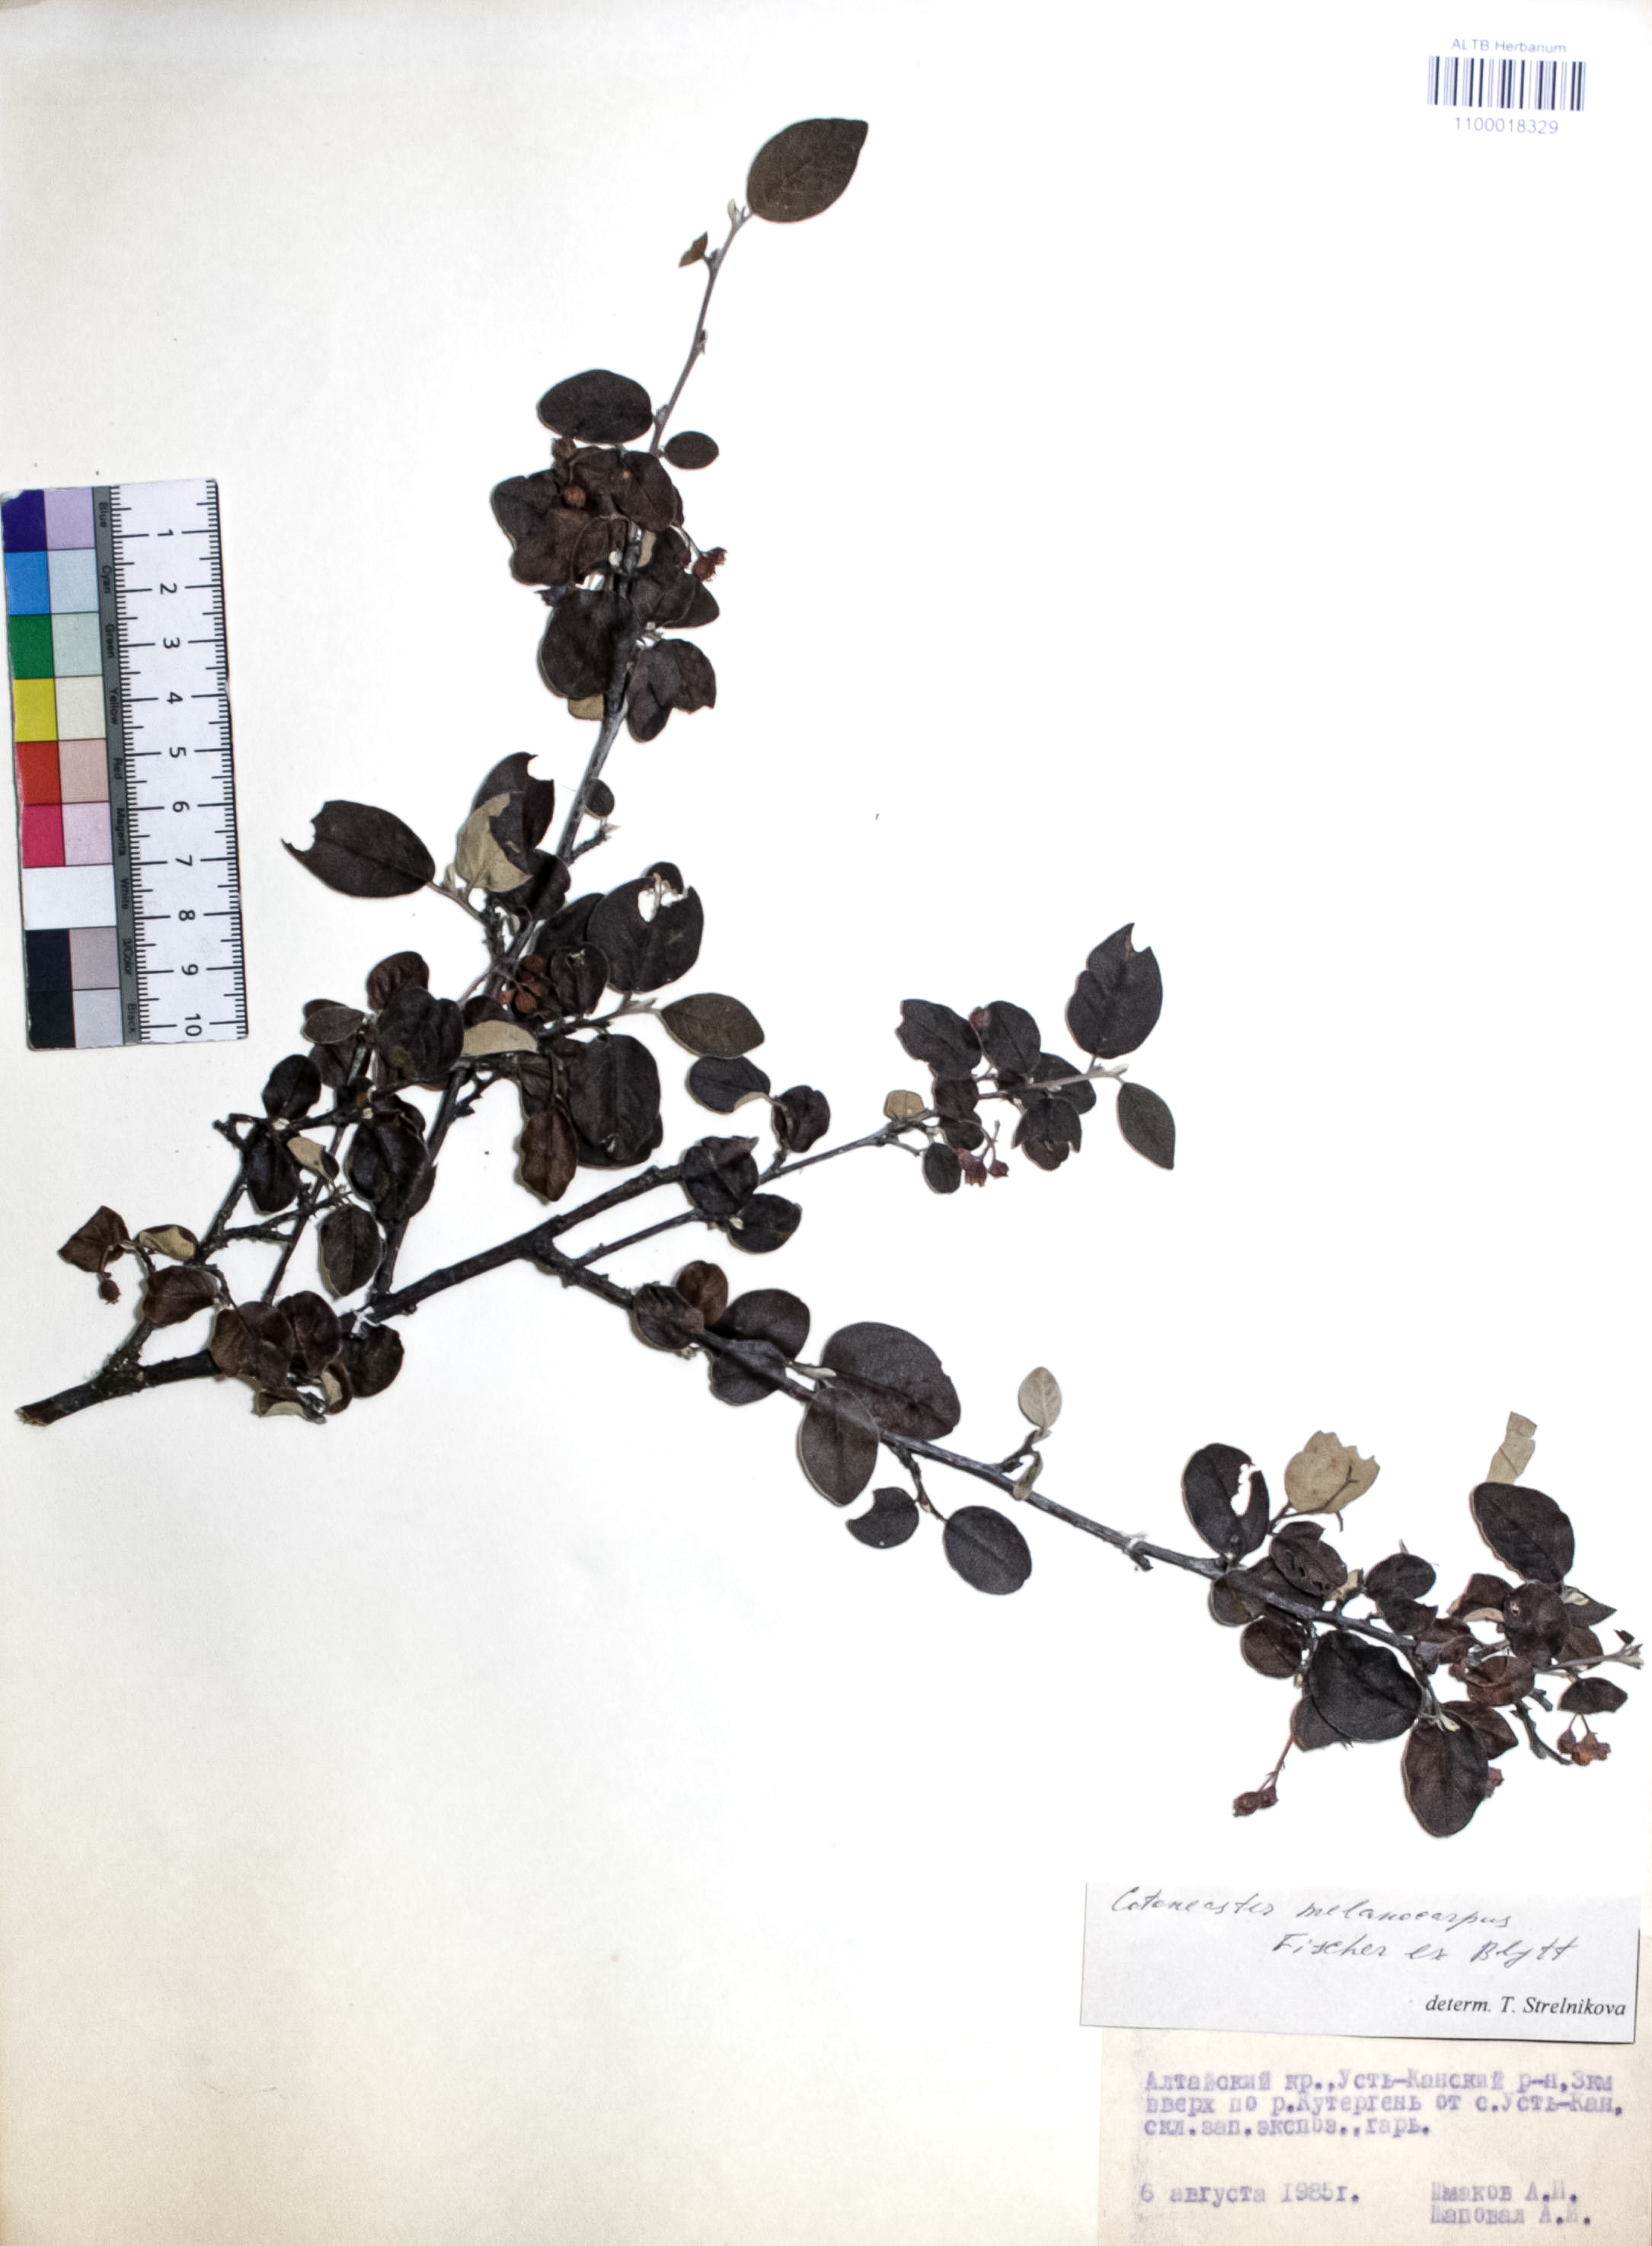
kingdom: Plantae
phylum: Tracheophyta
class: Magnoliopsida
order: Rosales
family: Rosaceae
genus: Cotoneaster
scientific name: Cotoneaster niger
